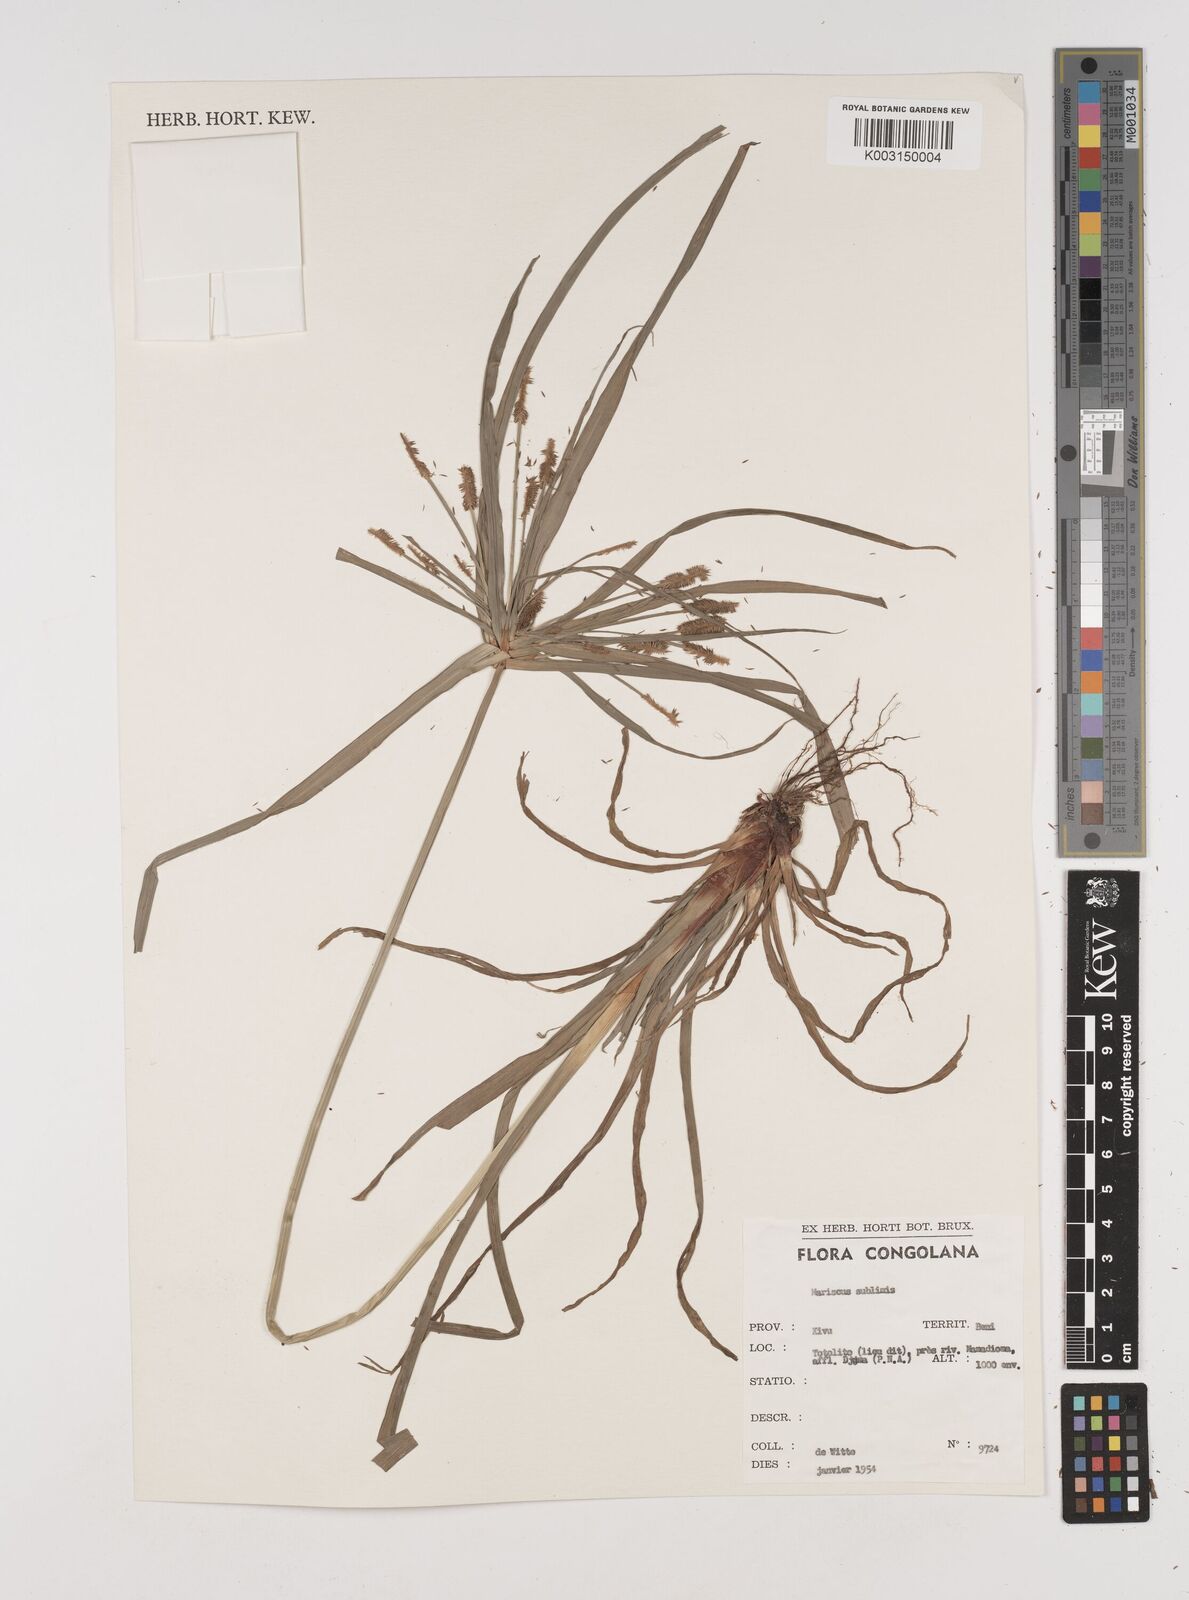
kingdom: Plantae
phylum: Tracheophyta
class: Liliopsida
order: Poales
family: Cyperaceae
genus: Cyperus
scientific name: Cyperus cyperoides
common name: Pacific island flat sedge
